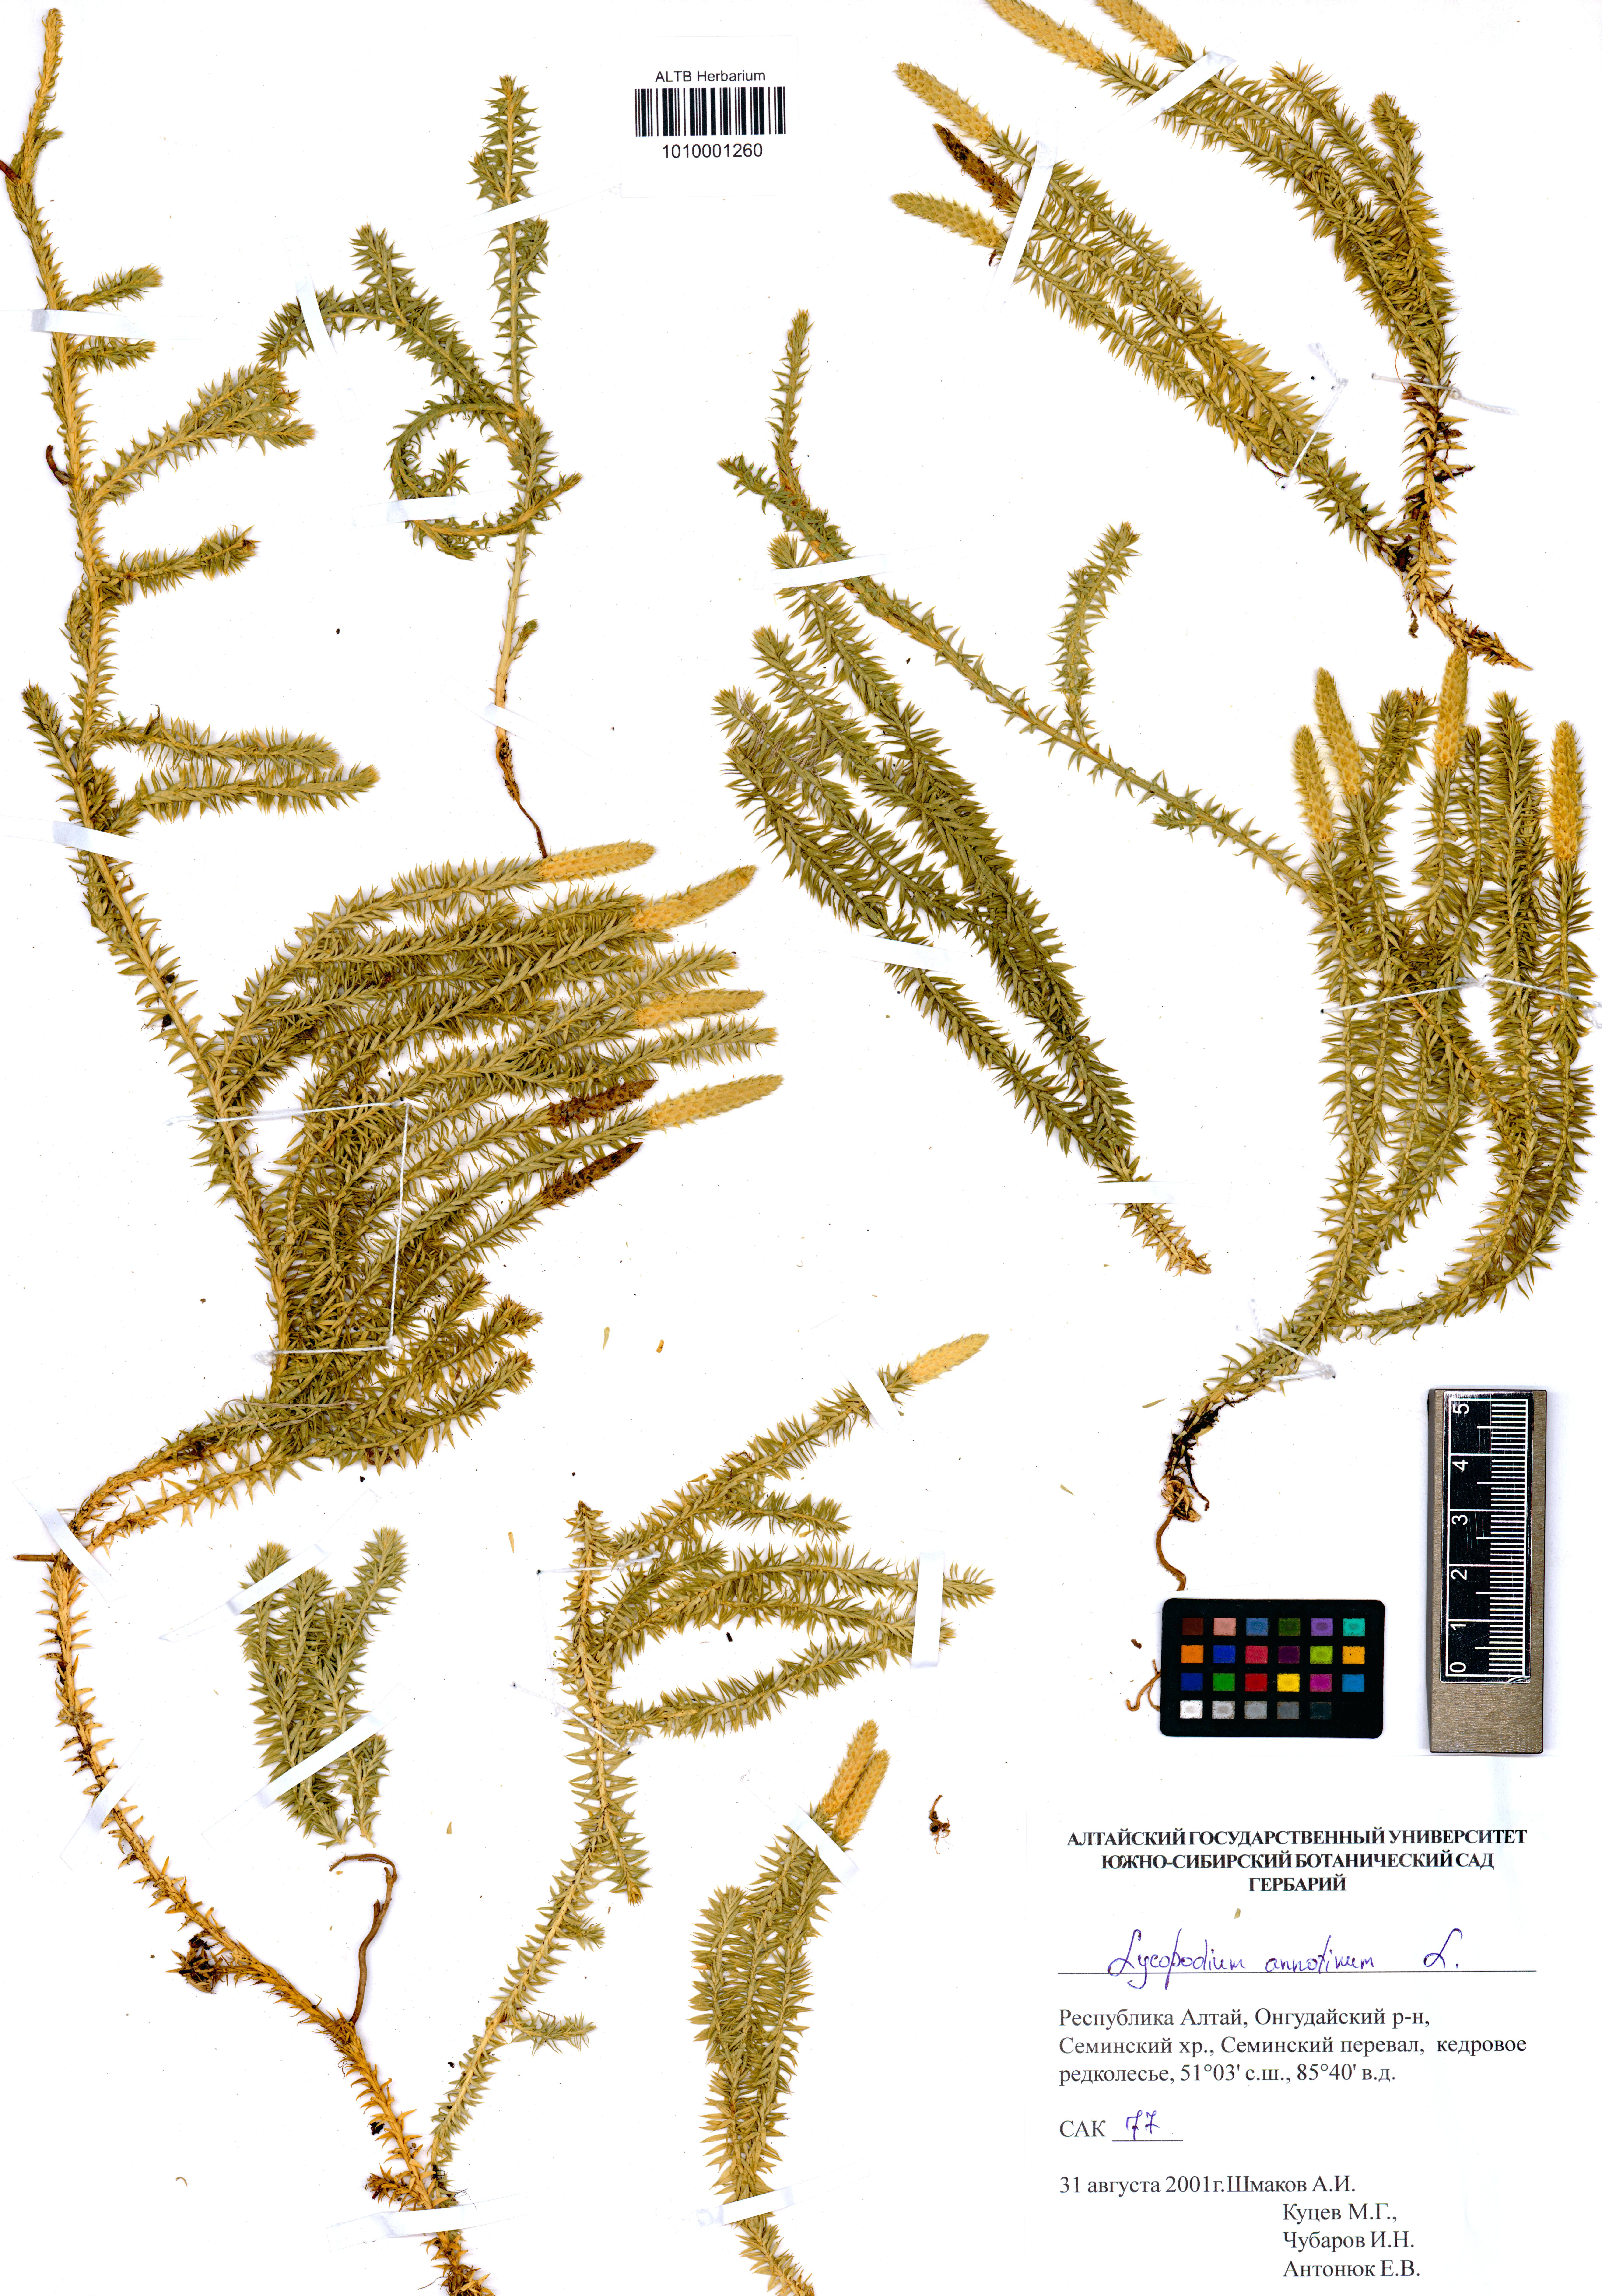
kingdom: Plantae
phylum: Tracheophyta
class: Lycopodiopsida
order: Lycopodiales
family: Lycopodiaceae
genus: Spinulum
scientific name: Spinulum annotinum
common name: Interrupted club-moss
